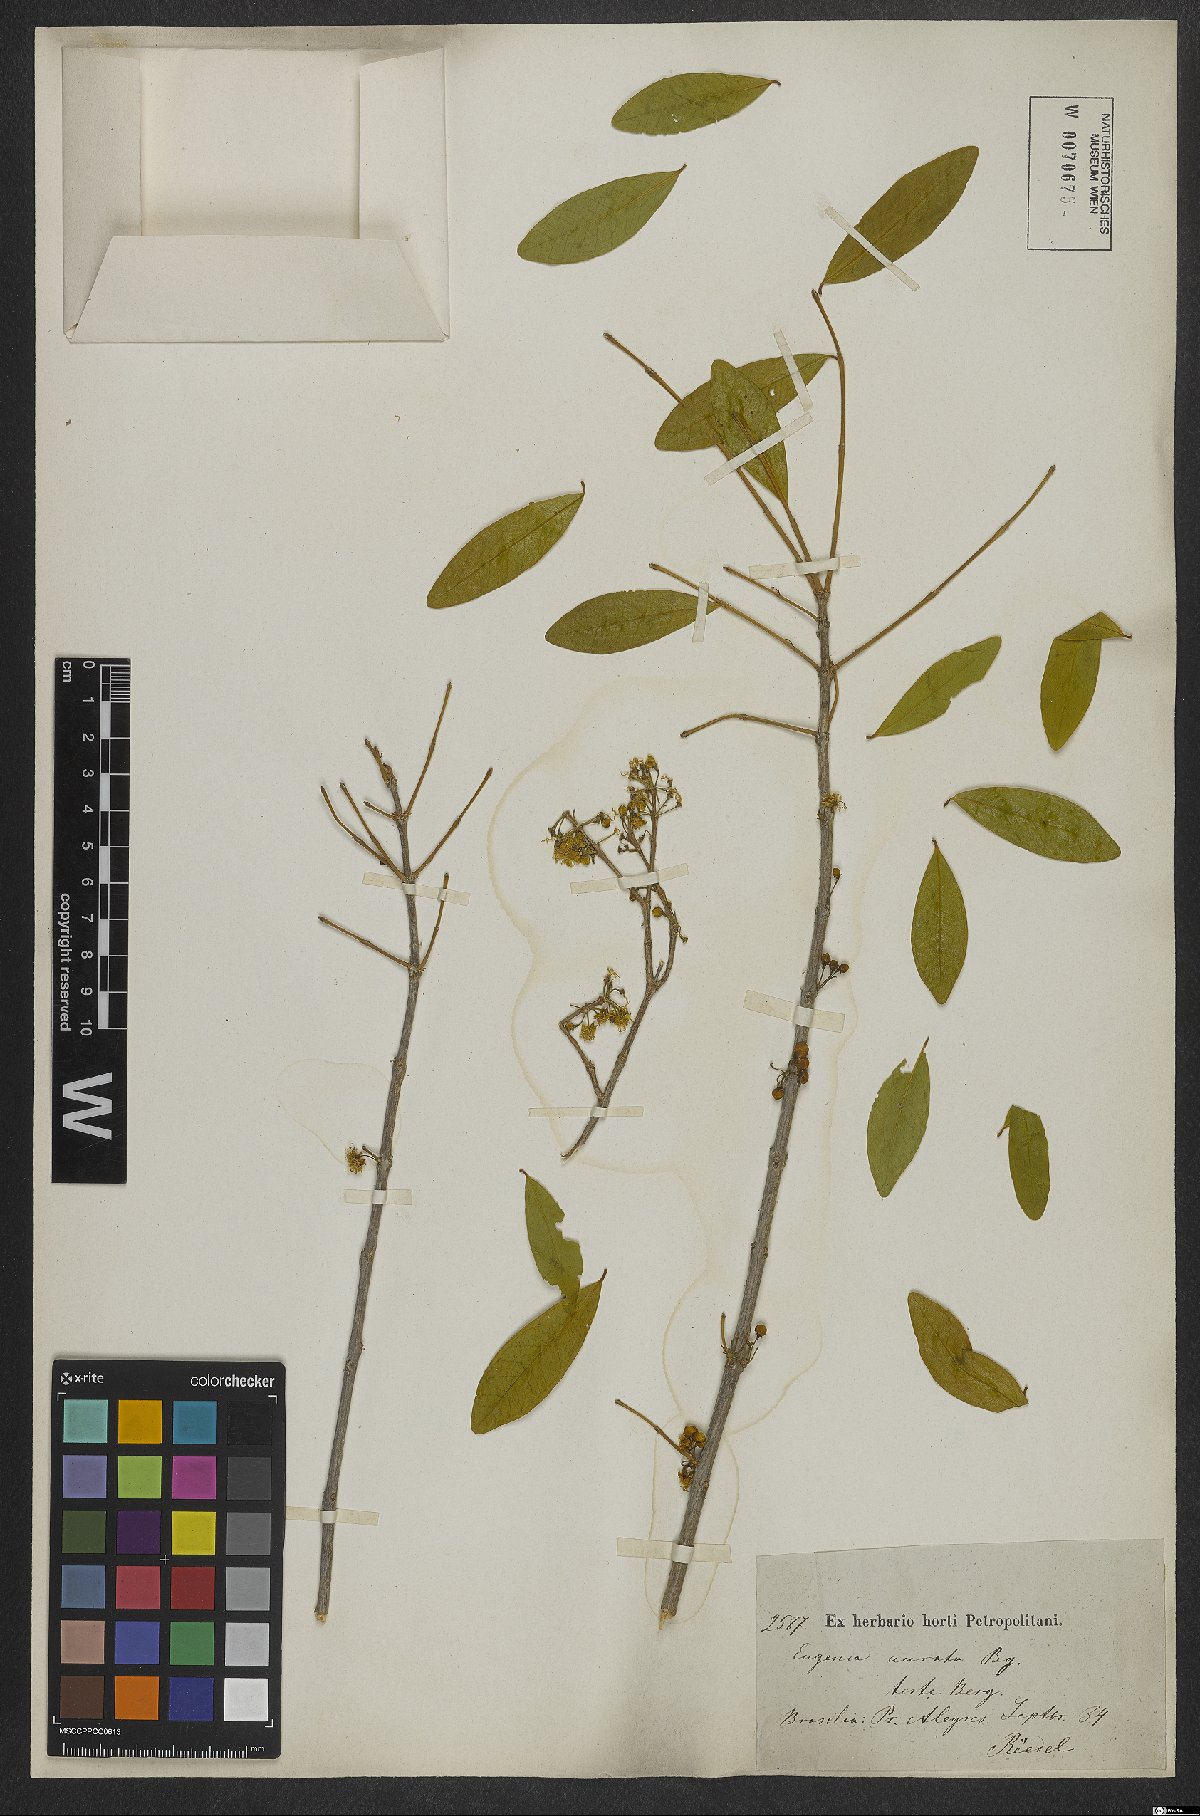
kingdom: Plantae
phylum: Tracheophyta
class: Magnoliopsida
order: Myrtales
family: Myrtaceae
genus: Eugenia
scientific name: Eugenia aurata
